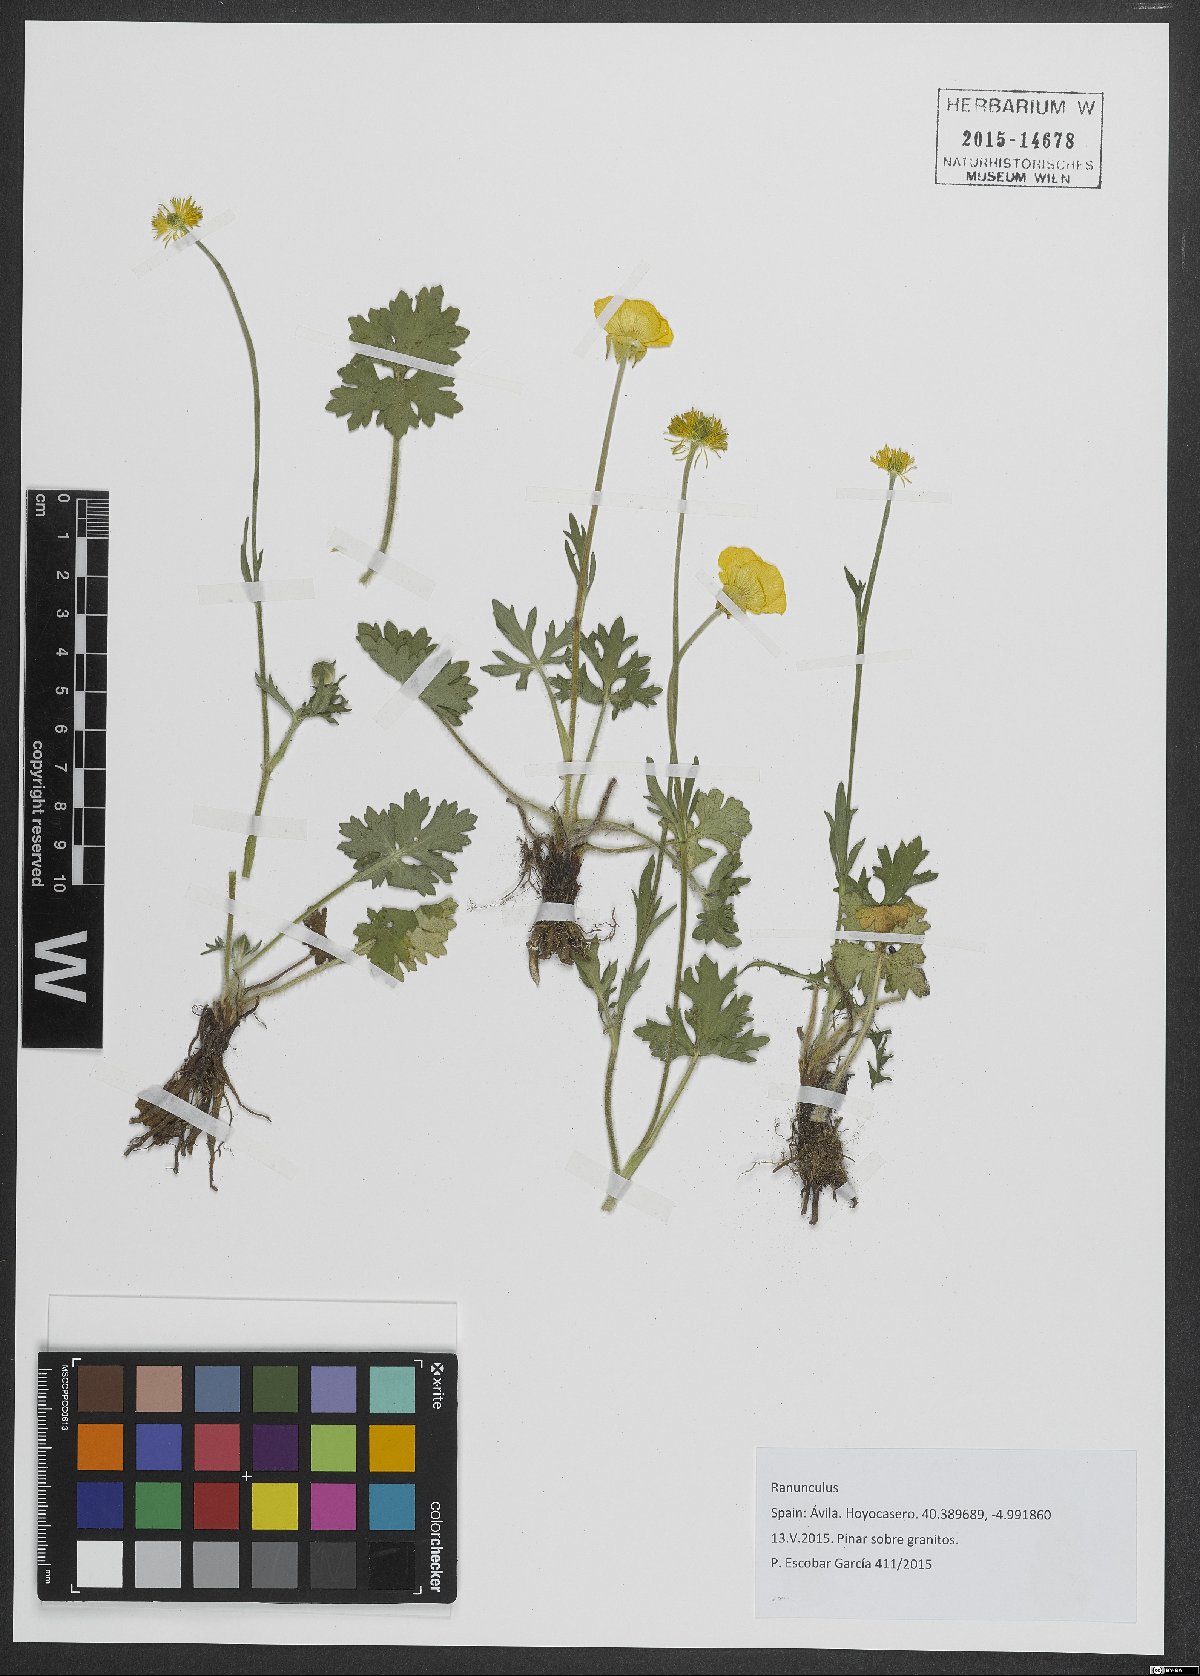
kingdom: Plantae
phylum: Tracheophyta
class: Magnoliopsida
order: Ranunculales
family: Ranunculaceae
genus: Ranunculus
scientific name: Ranunculus
